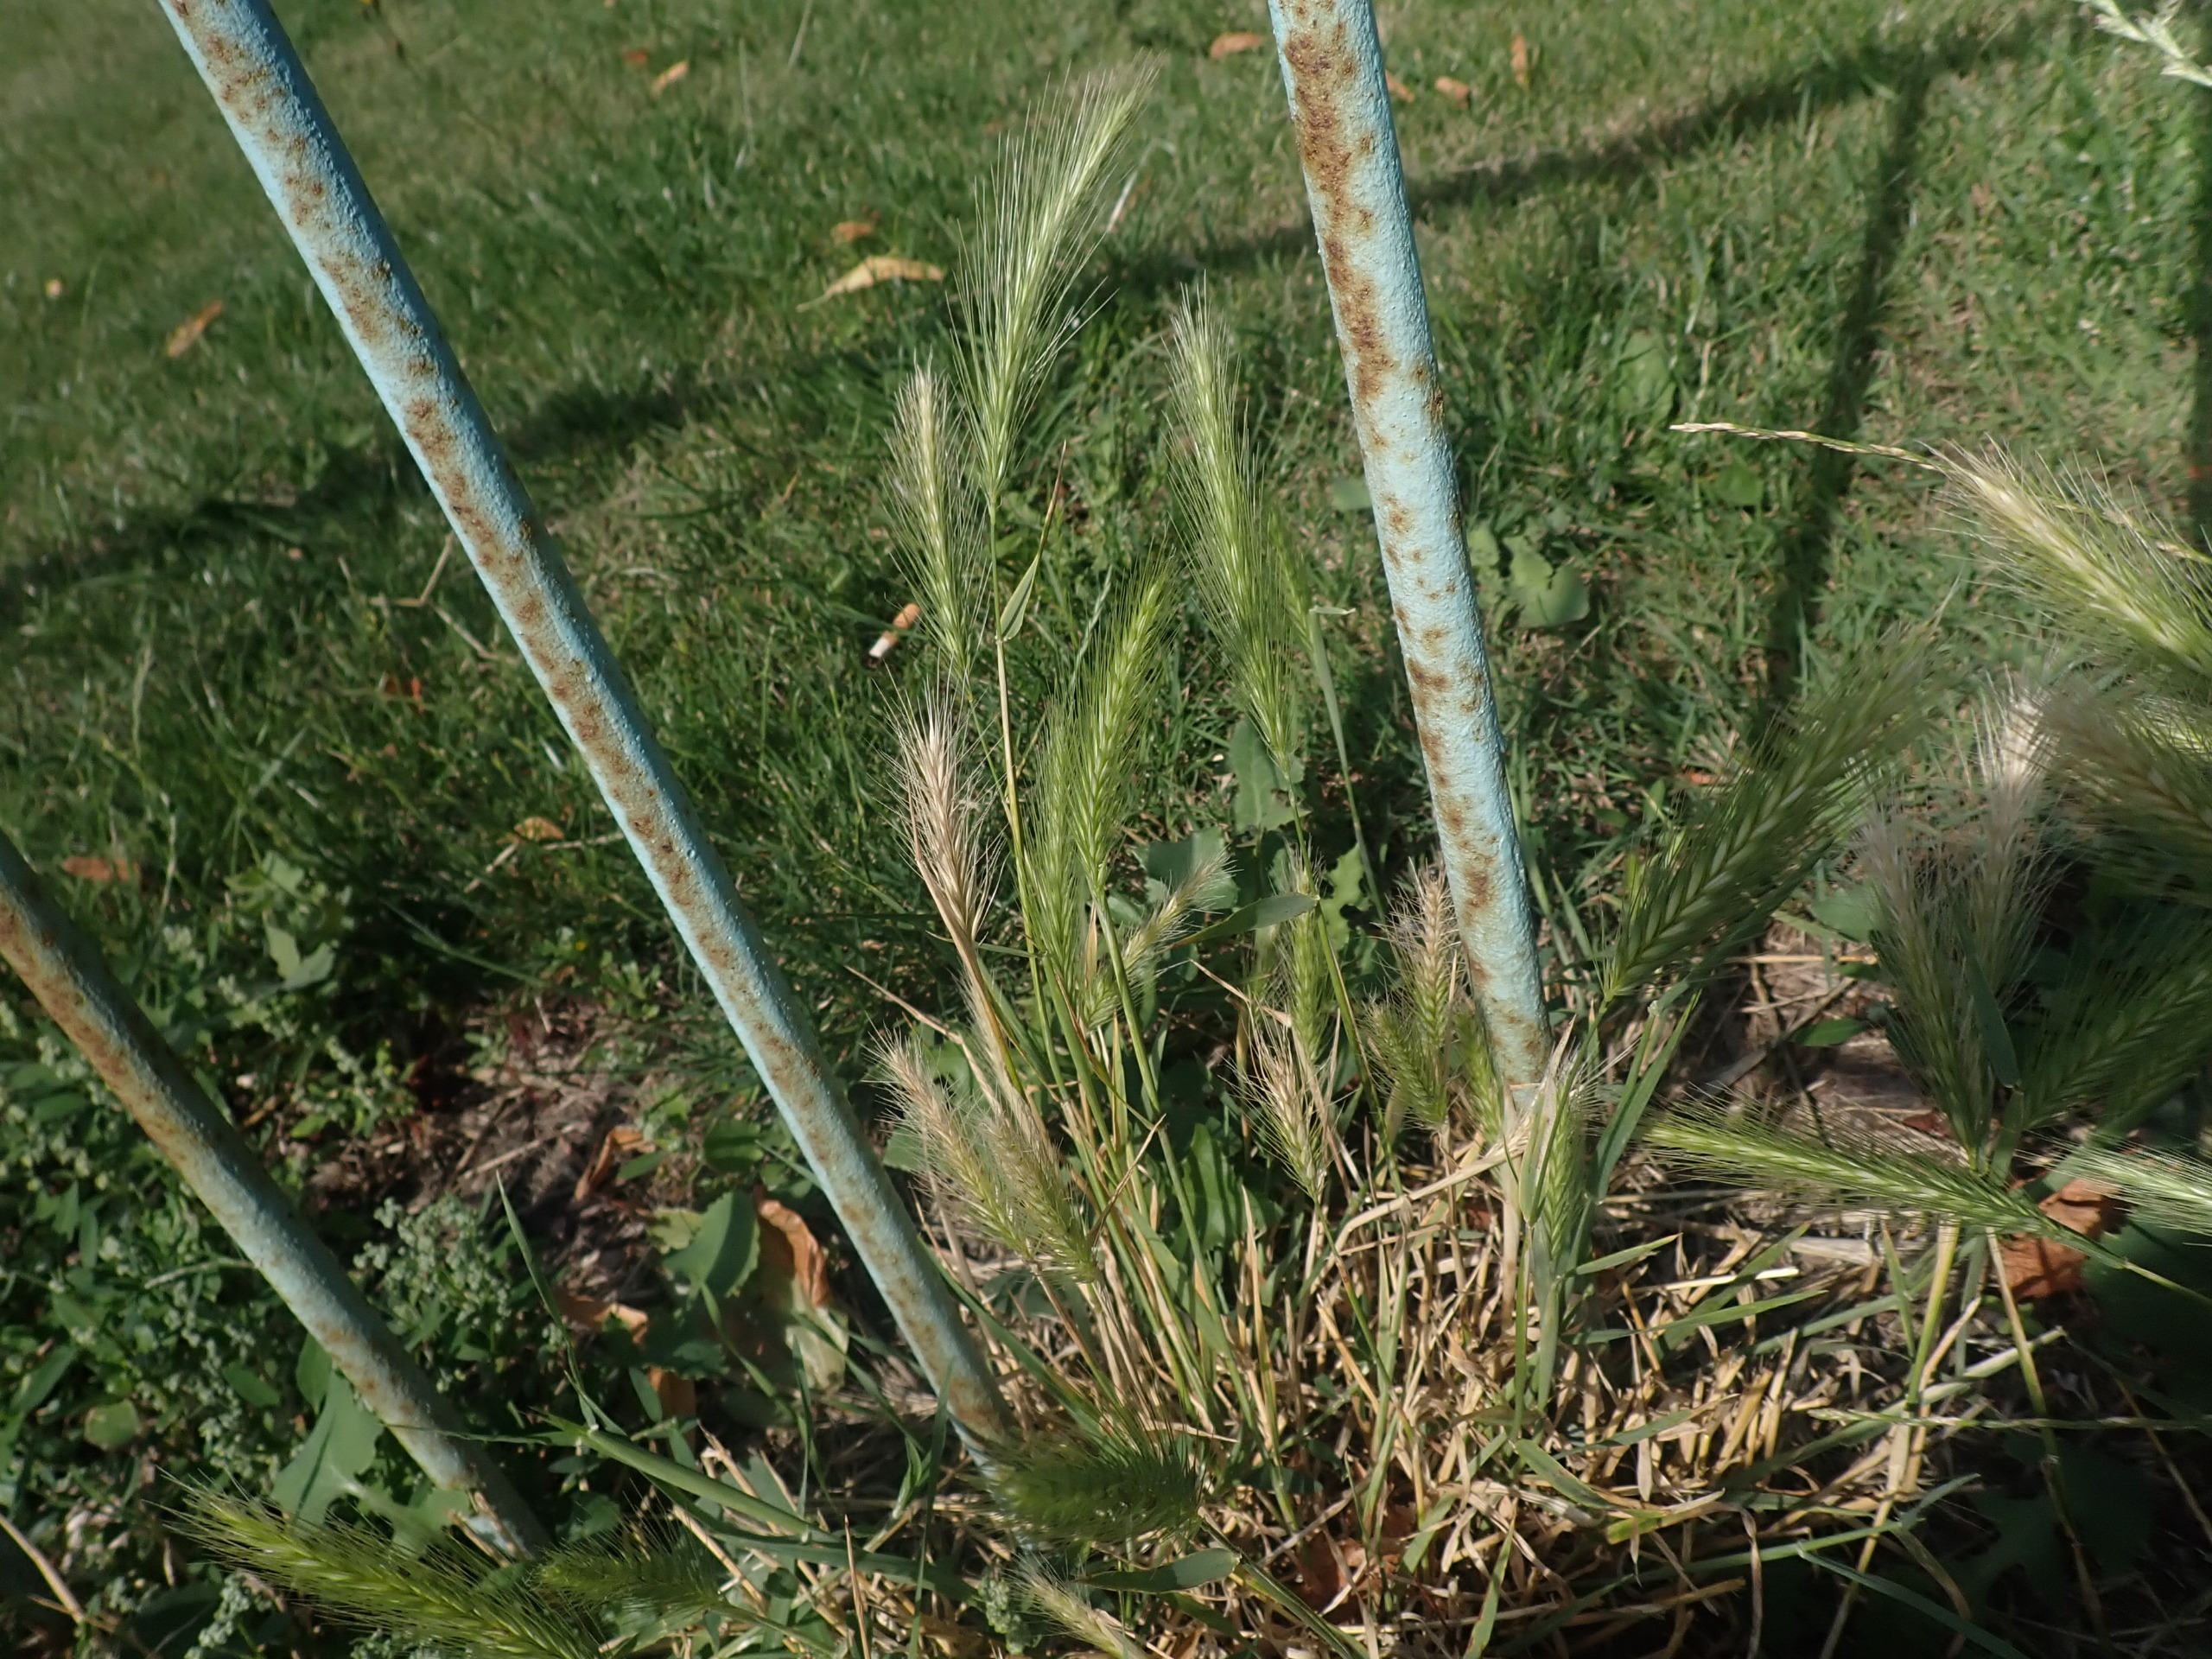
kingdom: Plantae
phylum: Tracheophyta
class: Liliopsida
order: Poales
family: Poaceae
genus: Hordeum
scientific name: Hordeum murinum
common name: Gold byg
